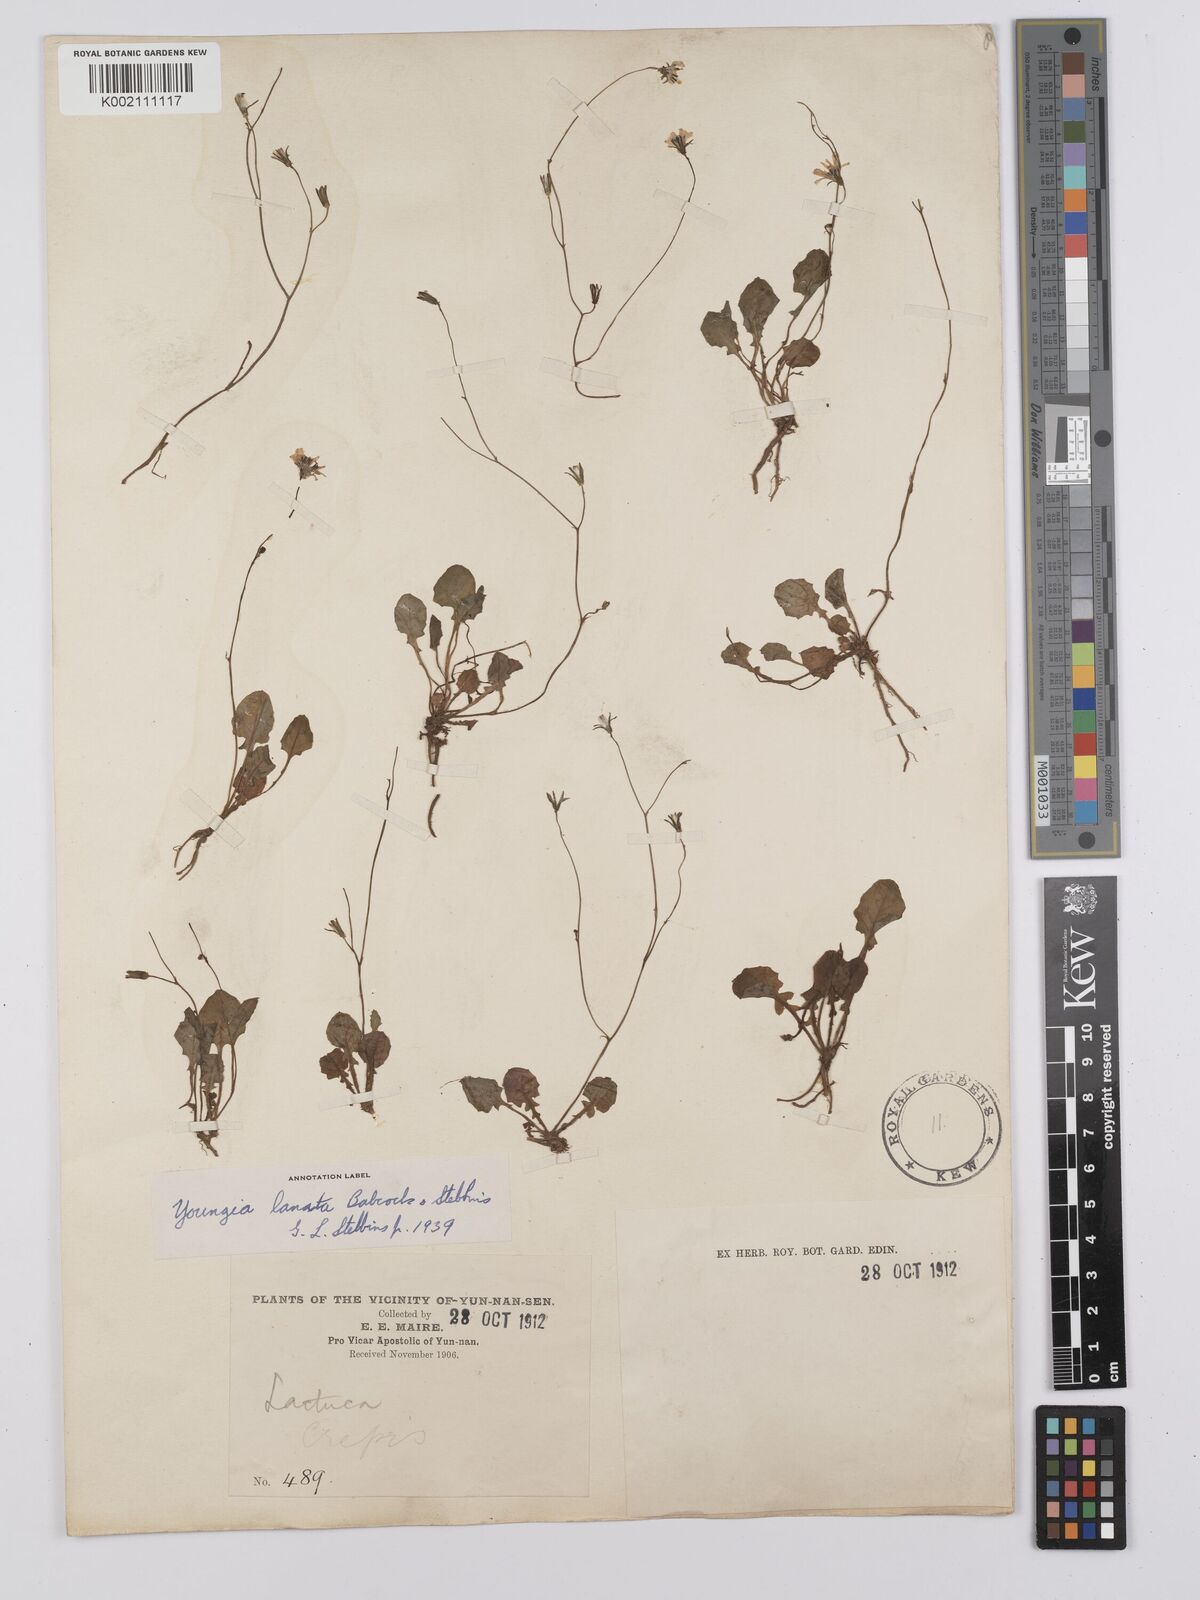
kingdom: Plantae
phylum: Tracheophyta
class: Magnoliopsida
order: Asterales
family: Asteraceae
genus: Youngia
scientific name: Youngia lanata
